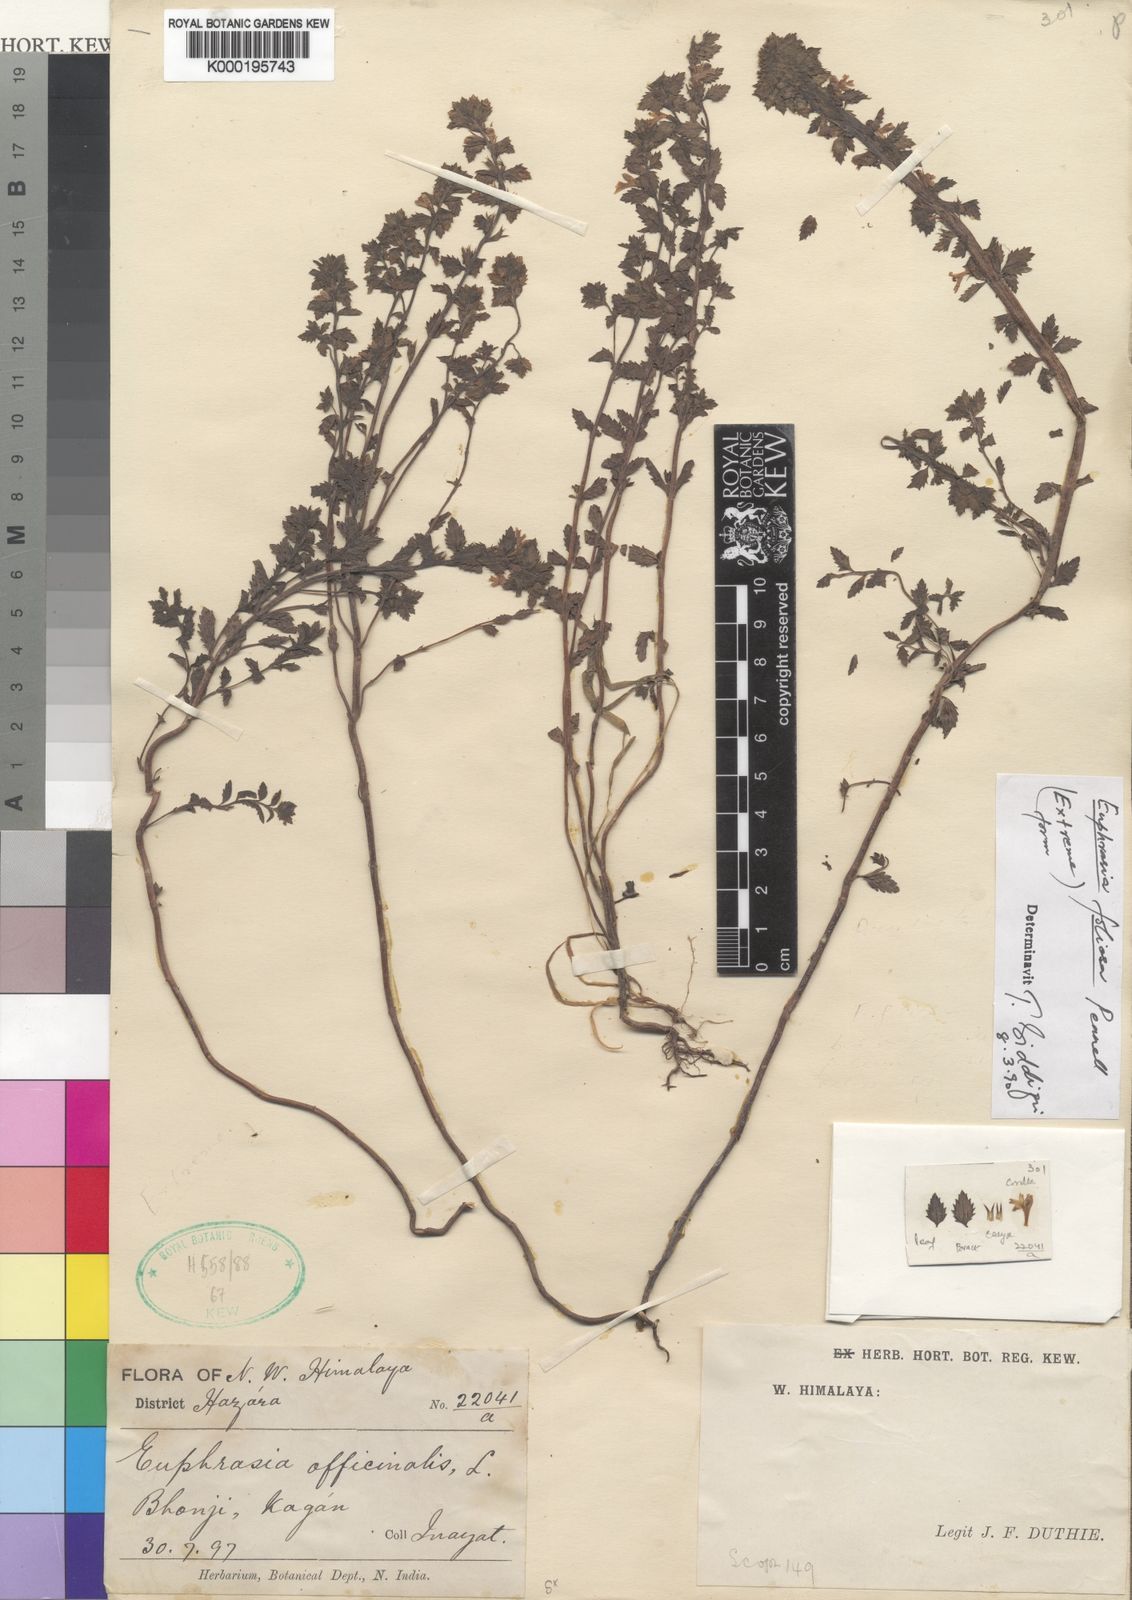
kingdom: Plantae
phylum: Tracheophyta
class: Magnoliopsida
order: Lamiales
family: Orobanchaceae
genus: Euphrasia
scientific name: Euphrasia foliosa
